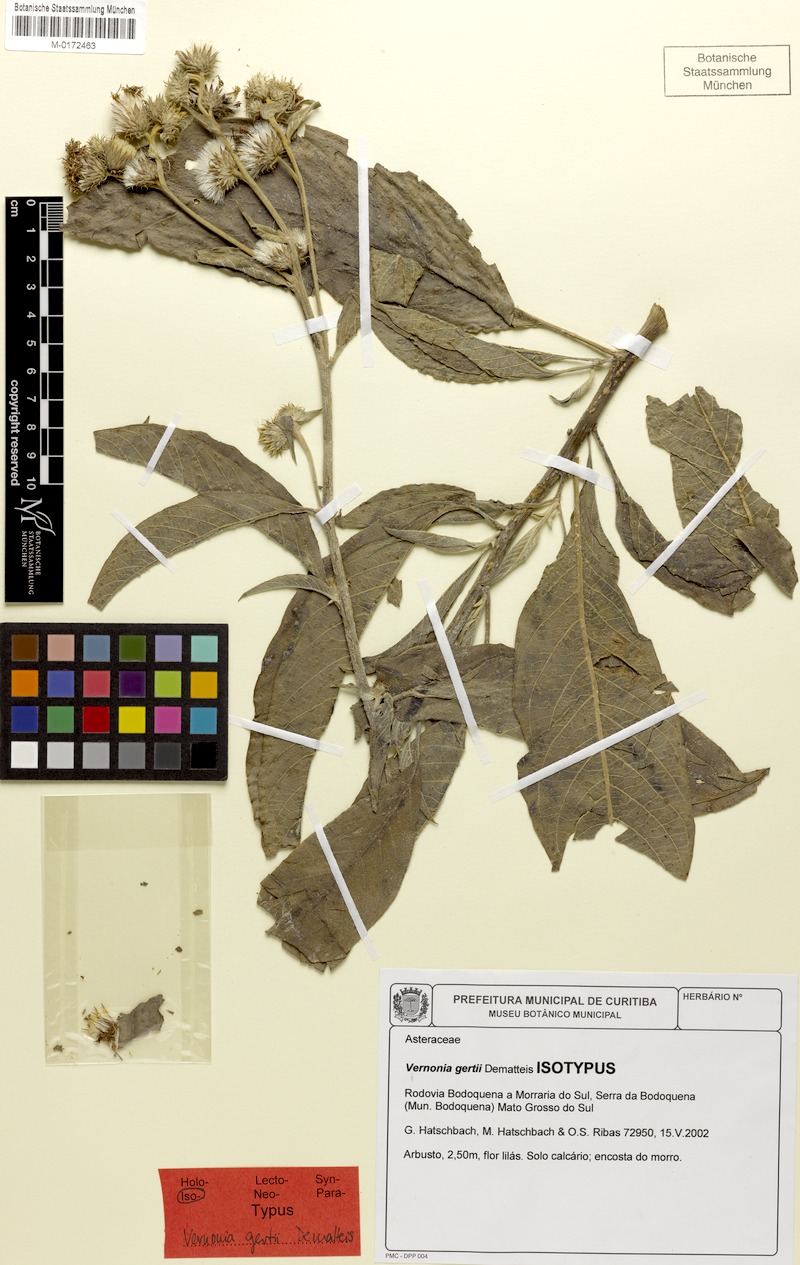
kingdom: Plantae
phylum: Tracheophyta
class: Magnoliopsida
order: Asterales
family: Asteraceae
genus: Vernonia
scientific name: Vernonia gertii
